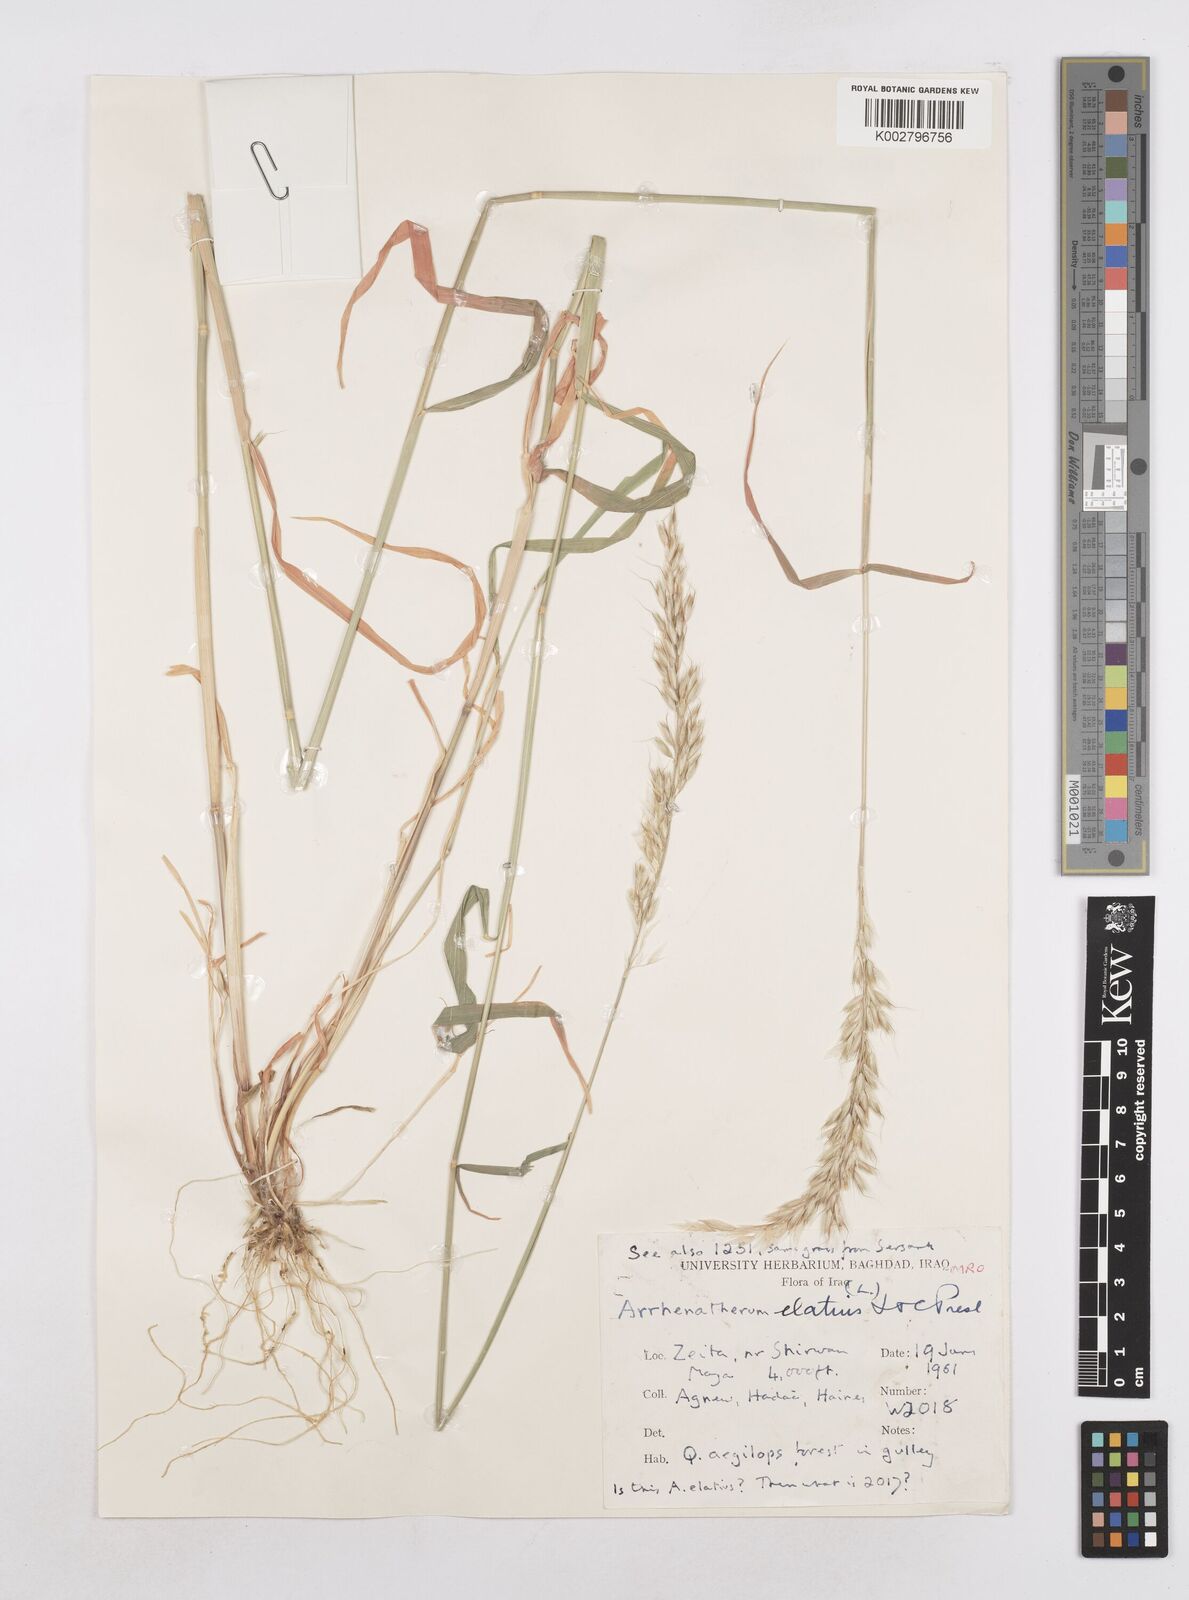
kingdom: Plantae
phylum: Tracheophyta
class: Liliopsida
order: Poales
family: Poaceae
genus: Arrhenatherum
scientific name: Arrhenatherum elatius
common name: Tall oatgrass
